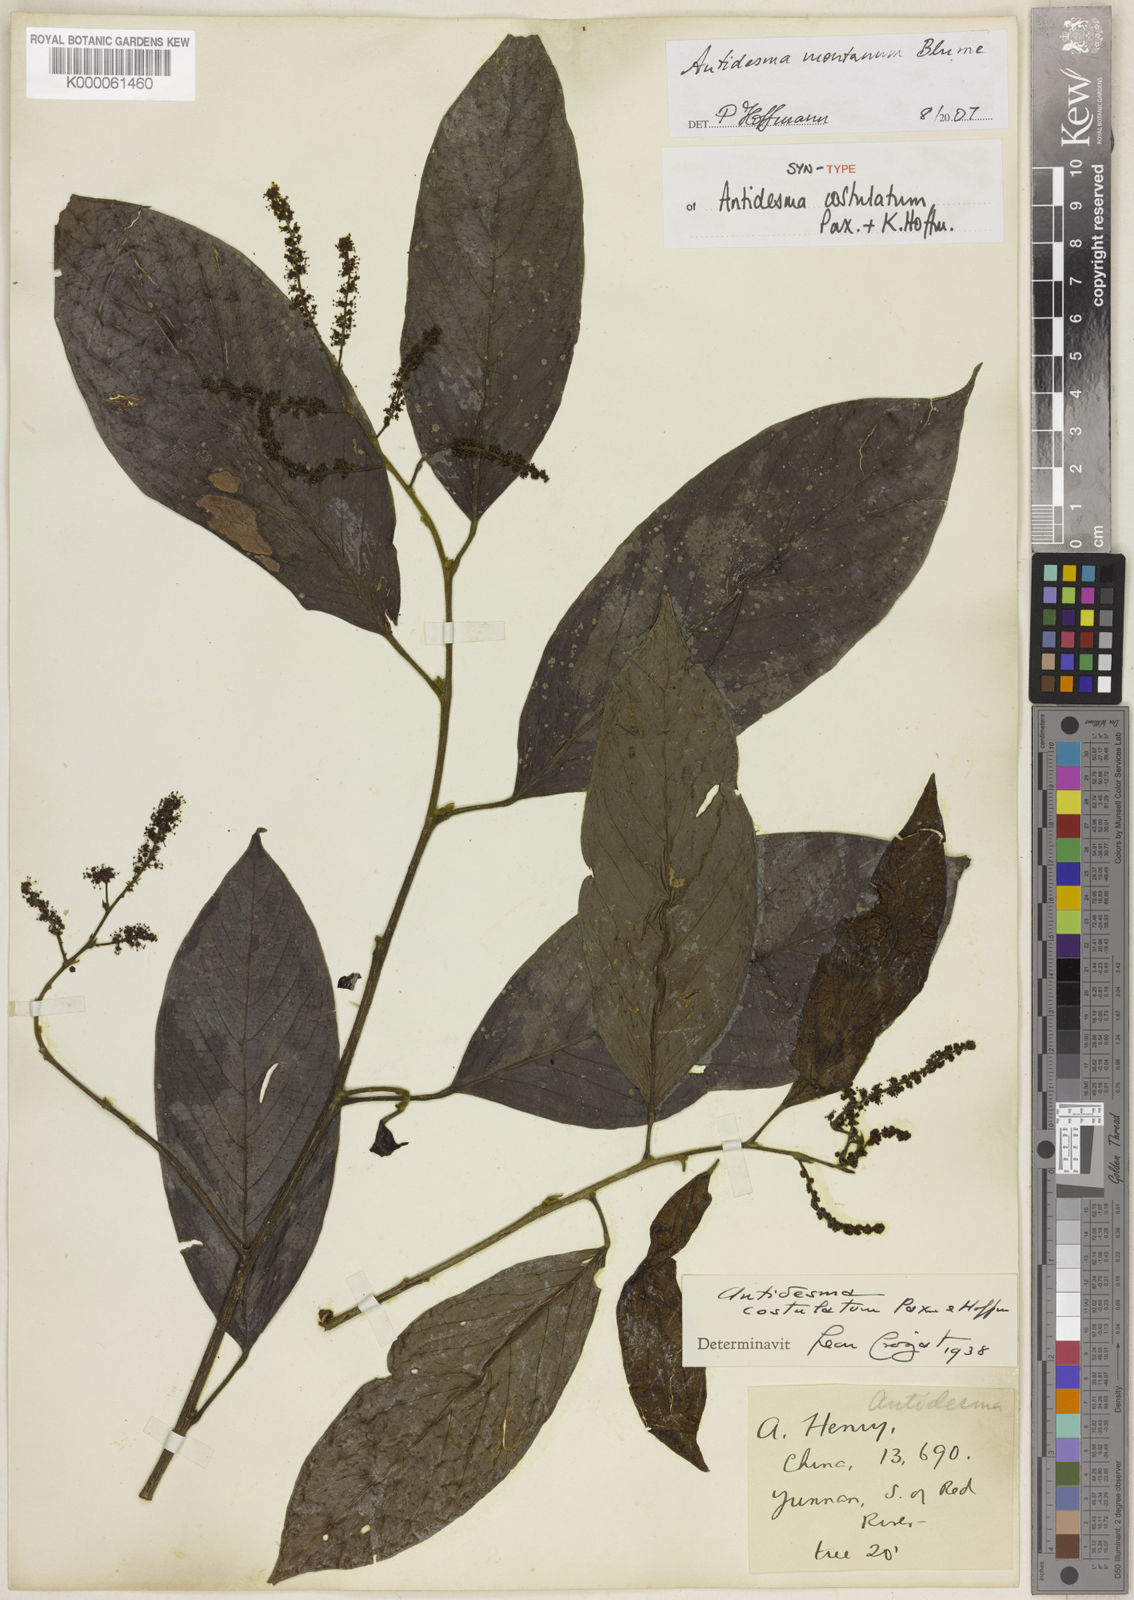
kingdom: Plantae
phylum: Tracheophyta
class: Magnoliopsida
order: Malpighiales
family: Phyllanthaceae
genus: Antidesma
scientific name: Antidesma montanum
